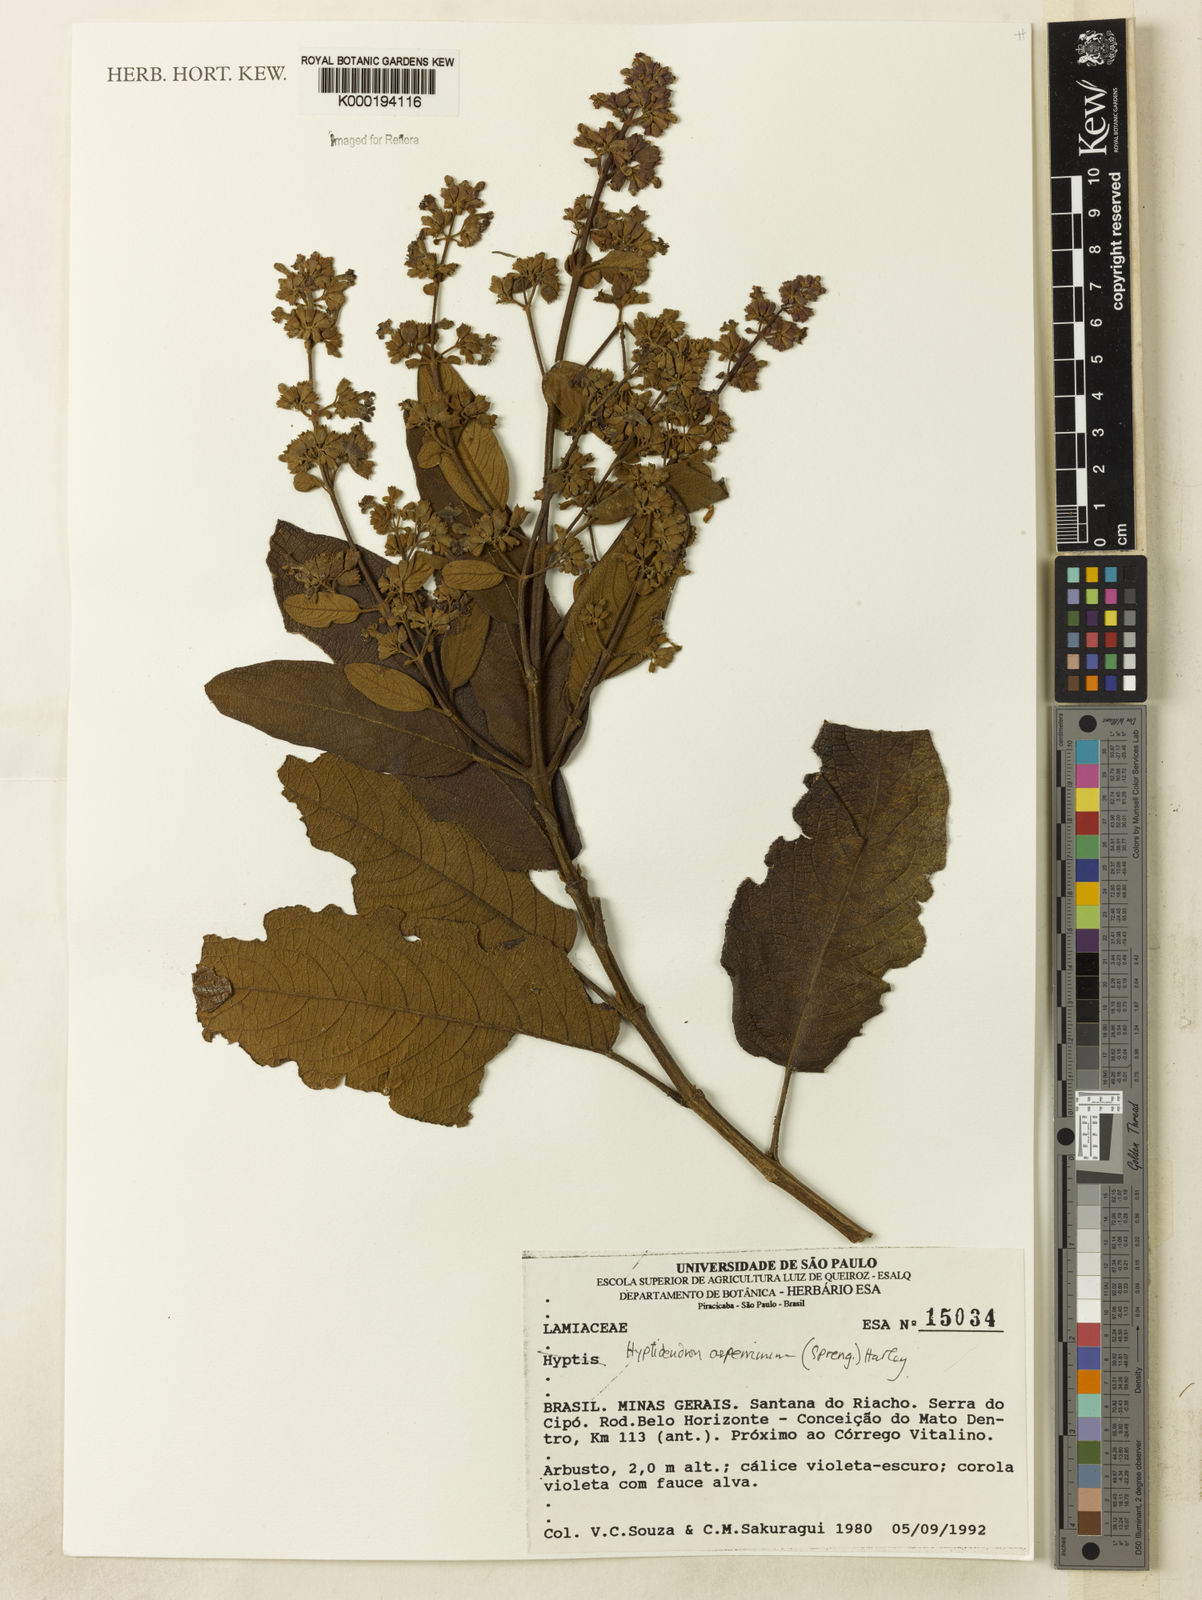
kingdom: Plantae
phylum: Tracheophyta
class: Magnoliopsida
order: Lamiales
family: Lamiaceae
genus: Hyptidendron
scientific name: Hyptidendron asperrimum
